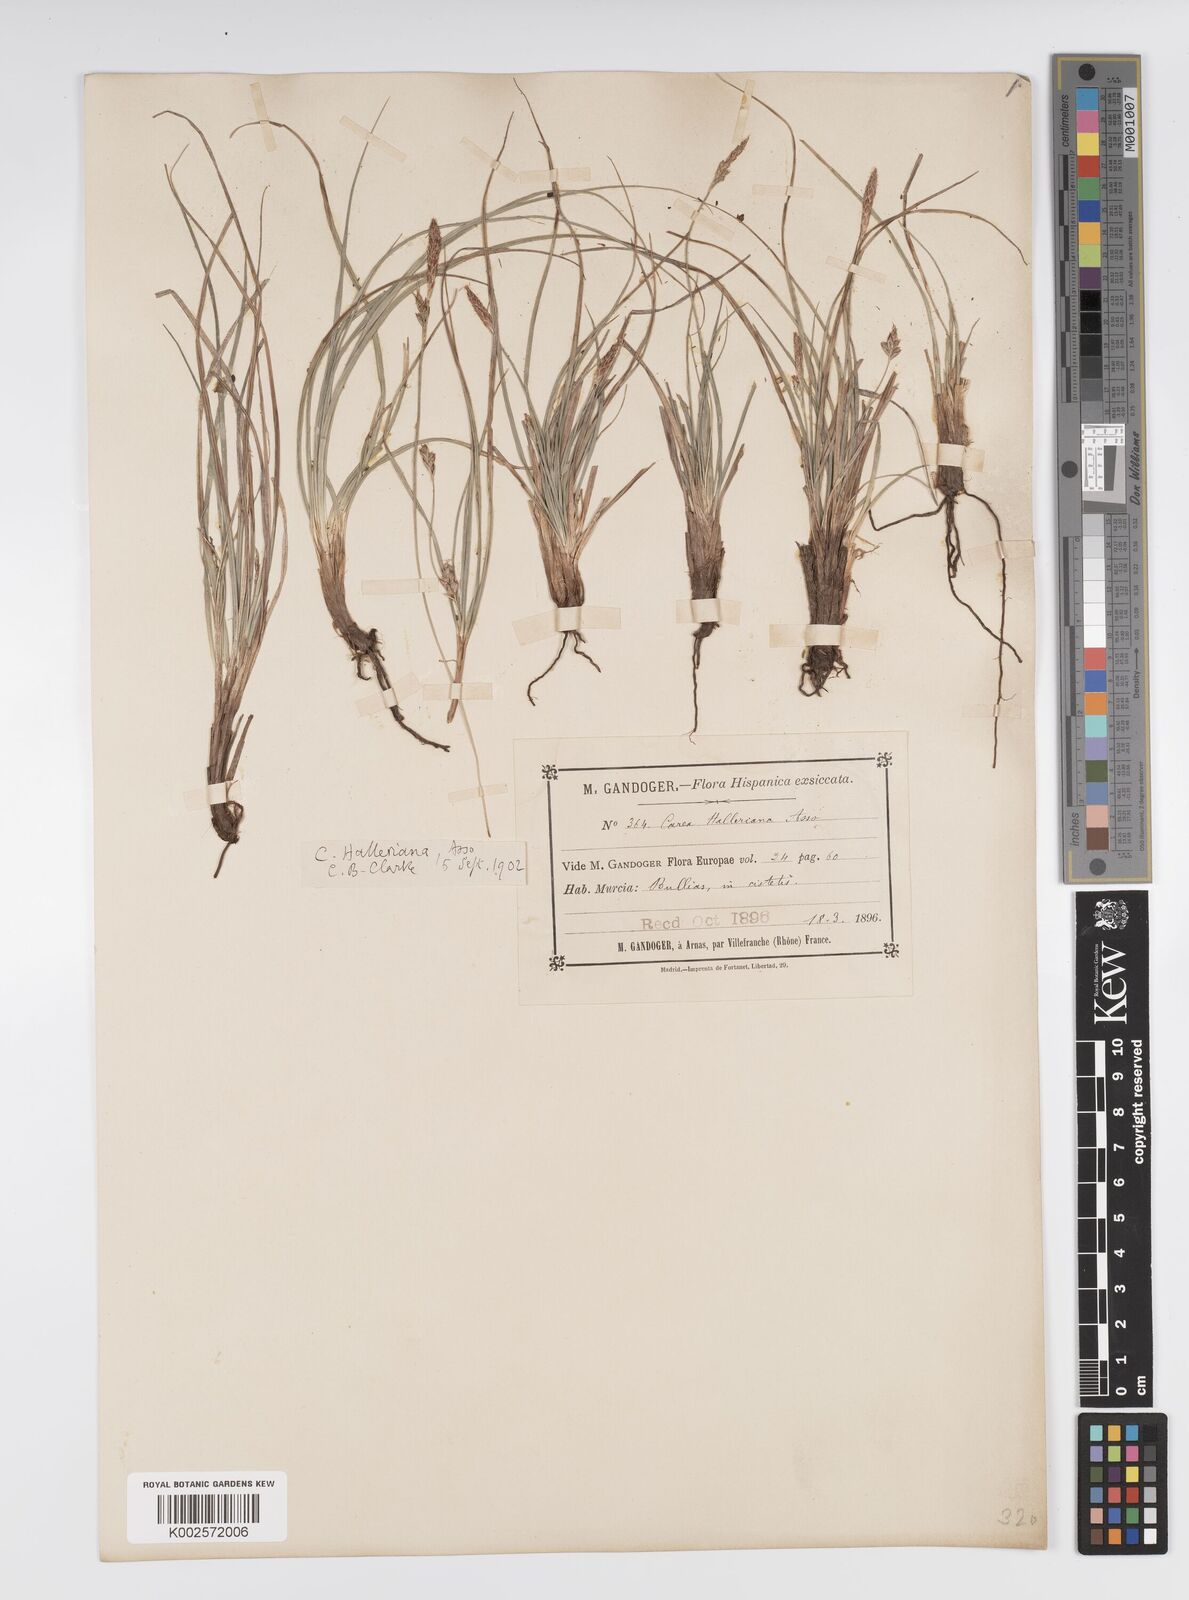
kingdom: Plantae
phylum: Tracheophyta
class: Liliopsida
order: Poales
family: Cyperaceae
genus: Carex
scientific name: Carex halleriana
